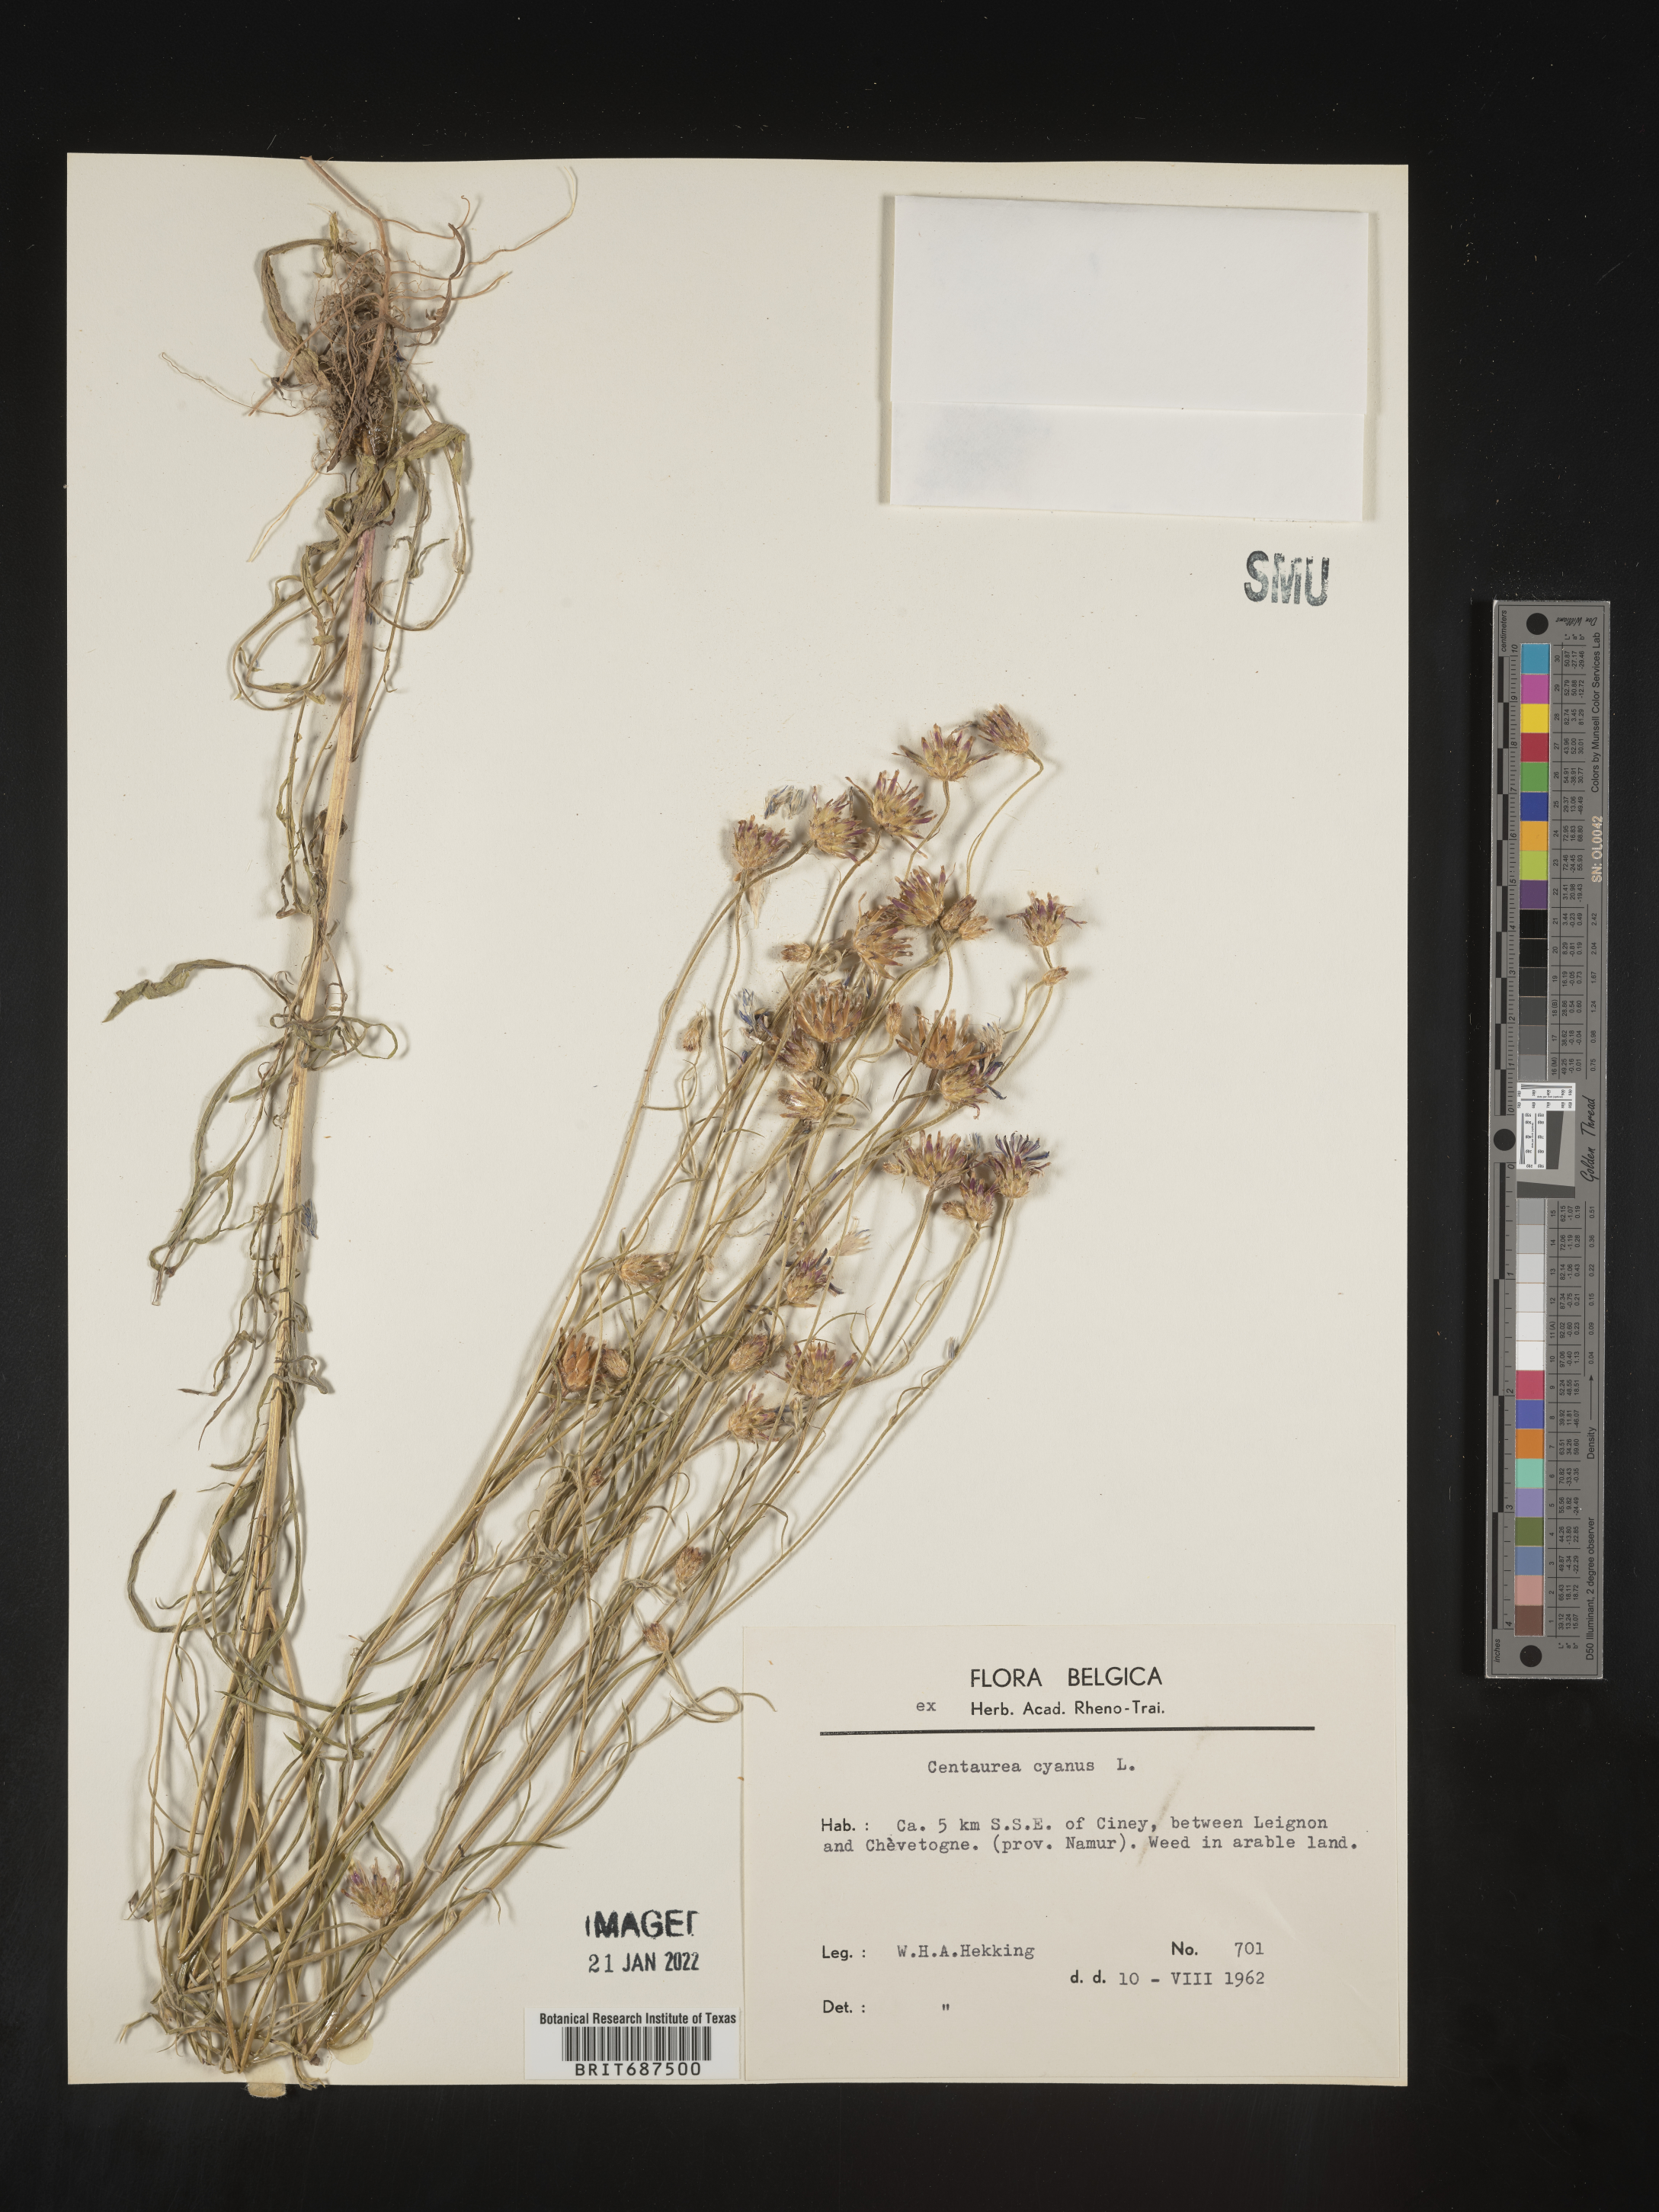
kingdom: Plantae
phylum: Tracheophyta
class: Magnoliopsida
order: Asterales
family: Asteraceae
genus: Centaurea
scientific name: Centaurea cyanus
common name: Cornflower
